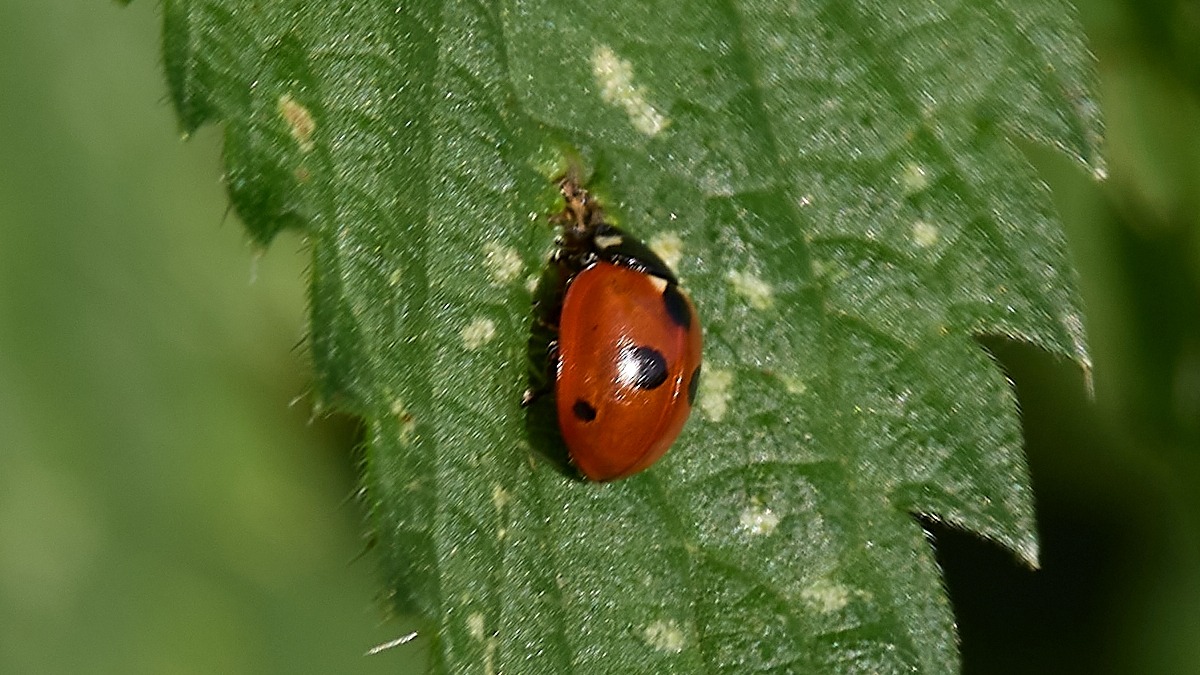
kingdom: Animalia
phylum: Arthropoda
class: Insecta
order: Coleoptera
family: Coccinellidae
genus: Coccinella
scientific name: Coccinella quinquepunctata
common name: Femplettet mariehøne
